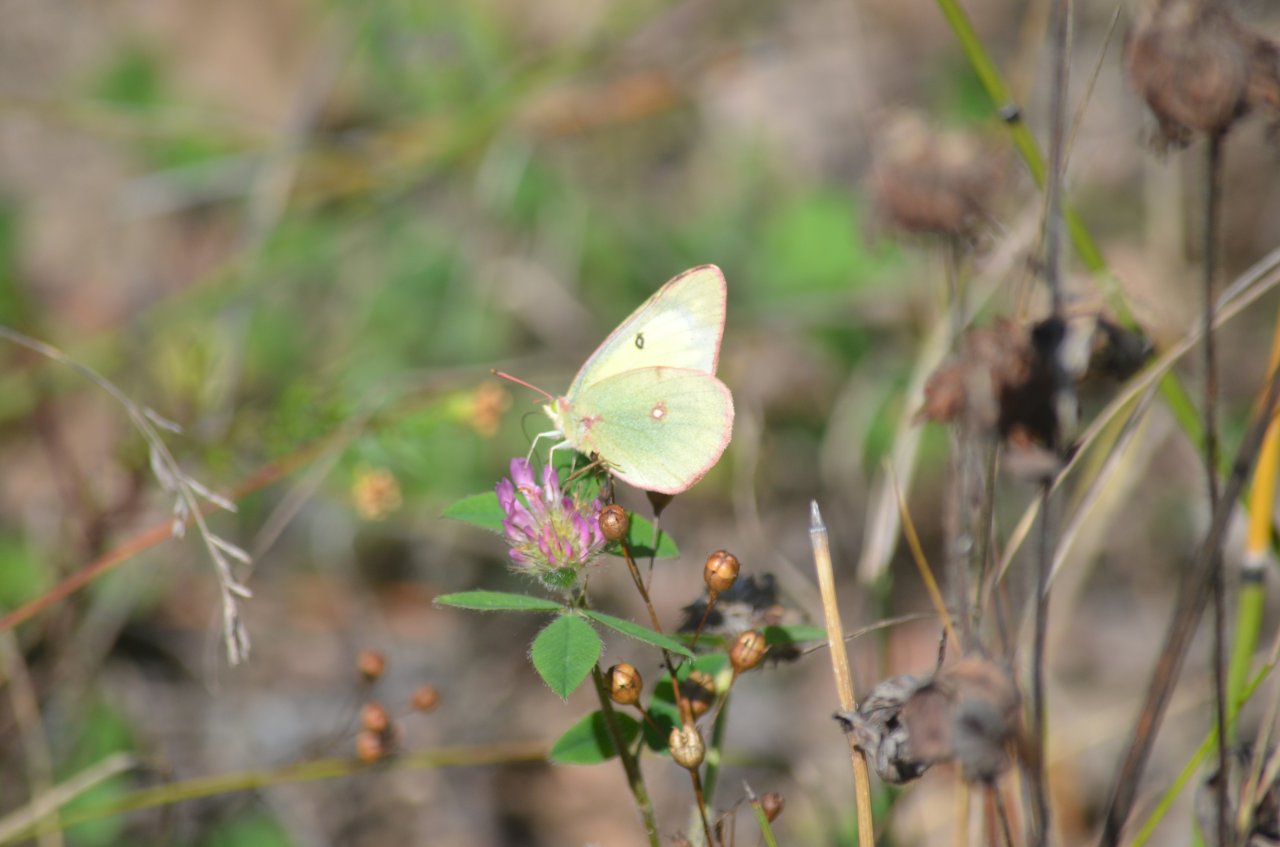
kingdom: Animalia
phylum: Arthropoda
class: Insecta
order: Lepidoptera
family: Pieridae
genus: Colias
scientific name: Colias philodice
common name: Clouded Sulphur
